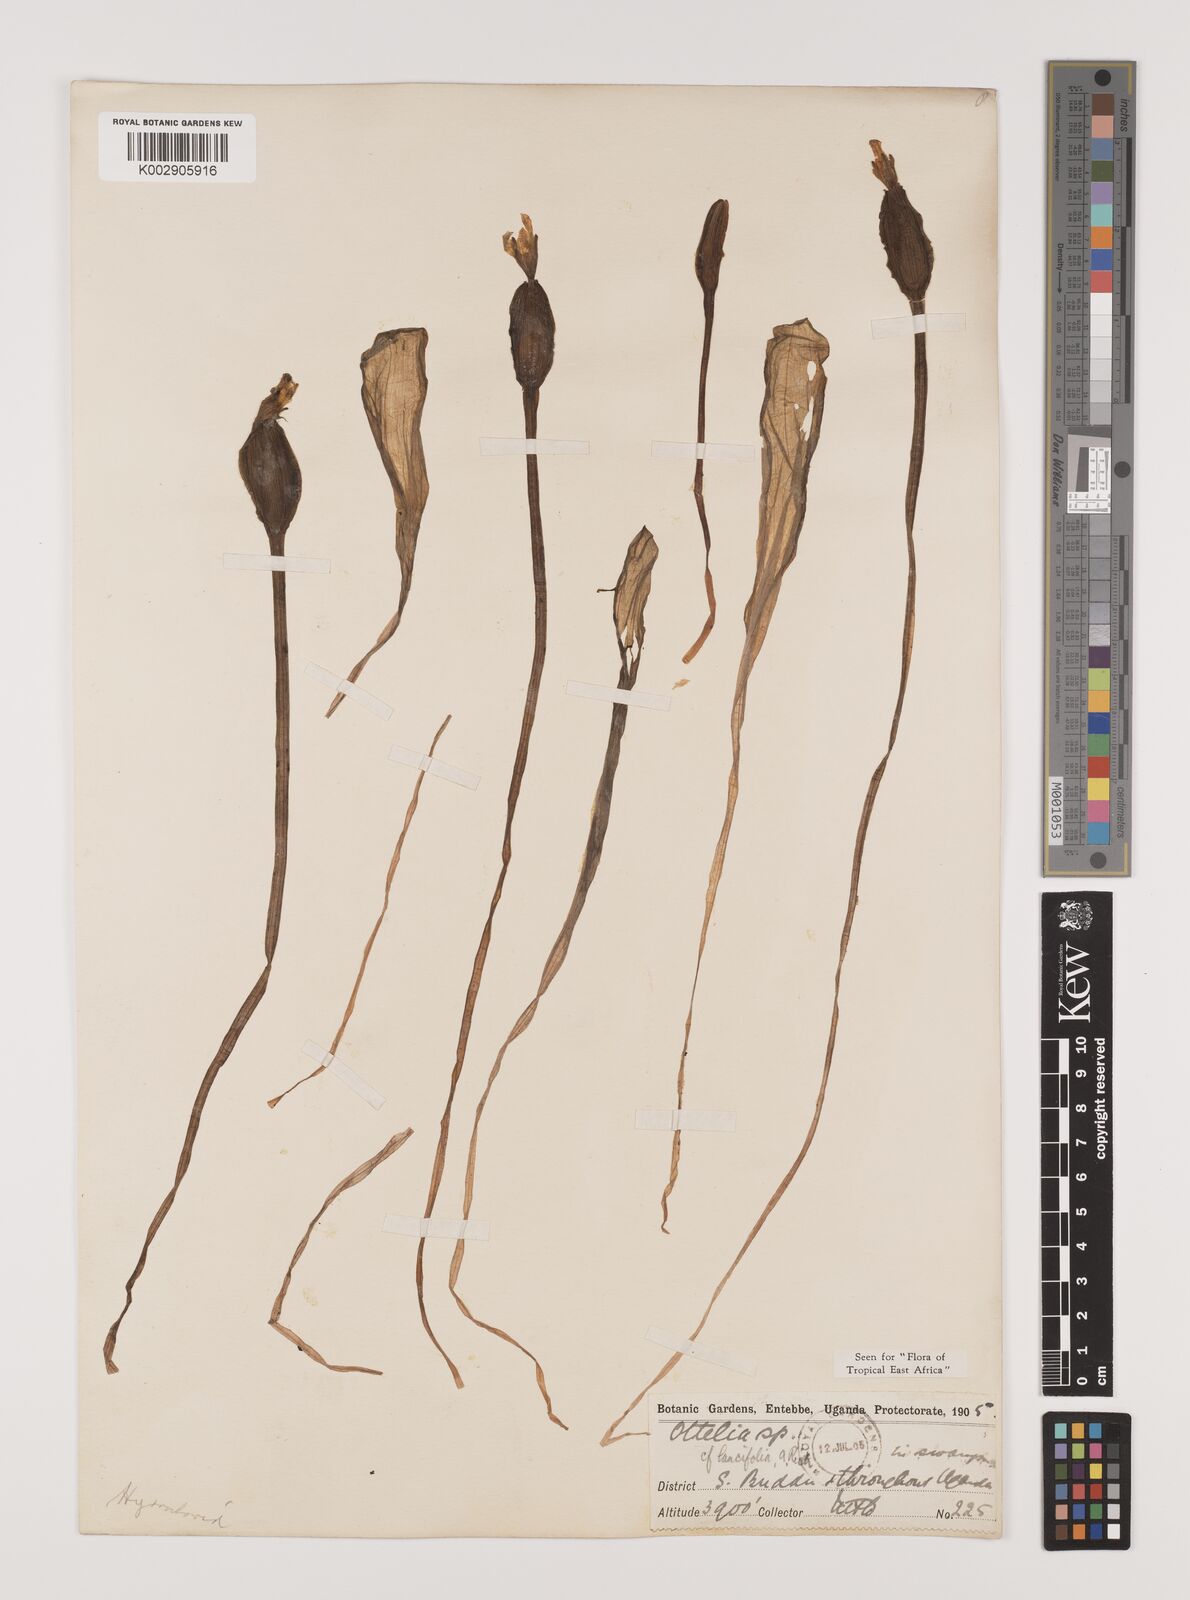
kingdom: Plantae
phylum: Tracheophyta
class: Liliopsida
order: Alismatales
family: Hydrocharitaceae
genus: Ottelia
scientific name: Ottelia ulvifolia
